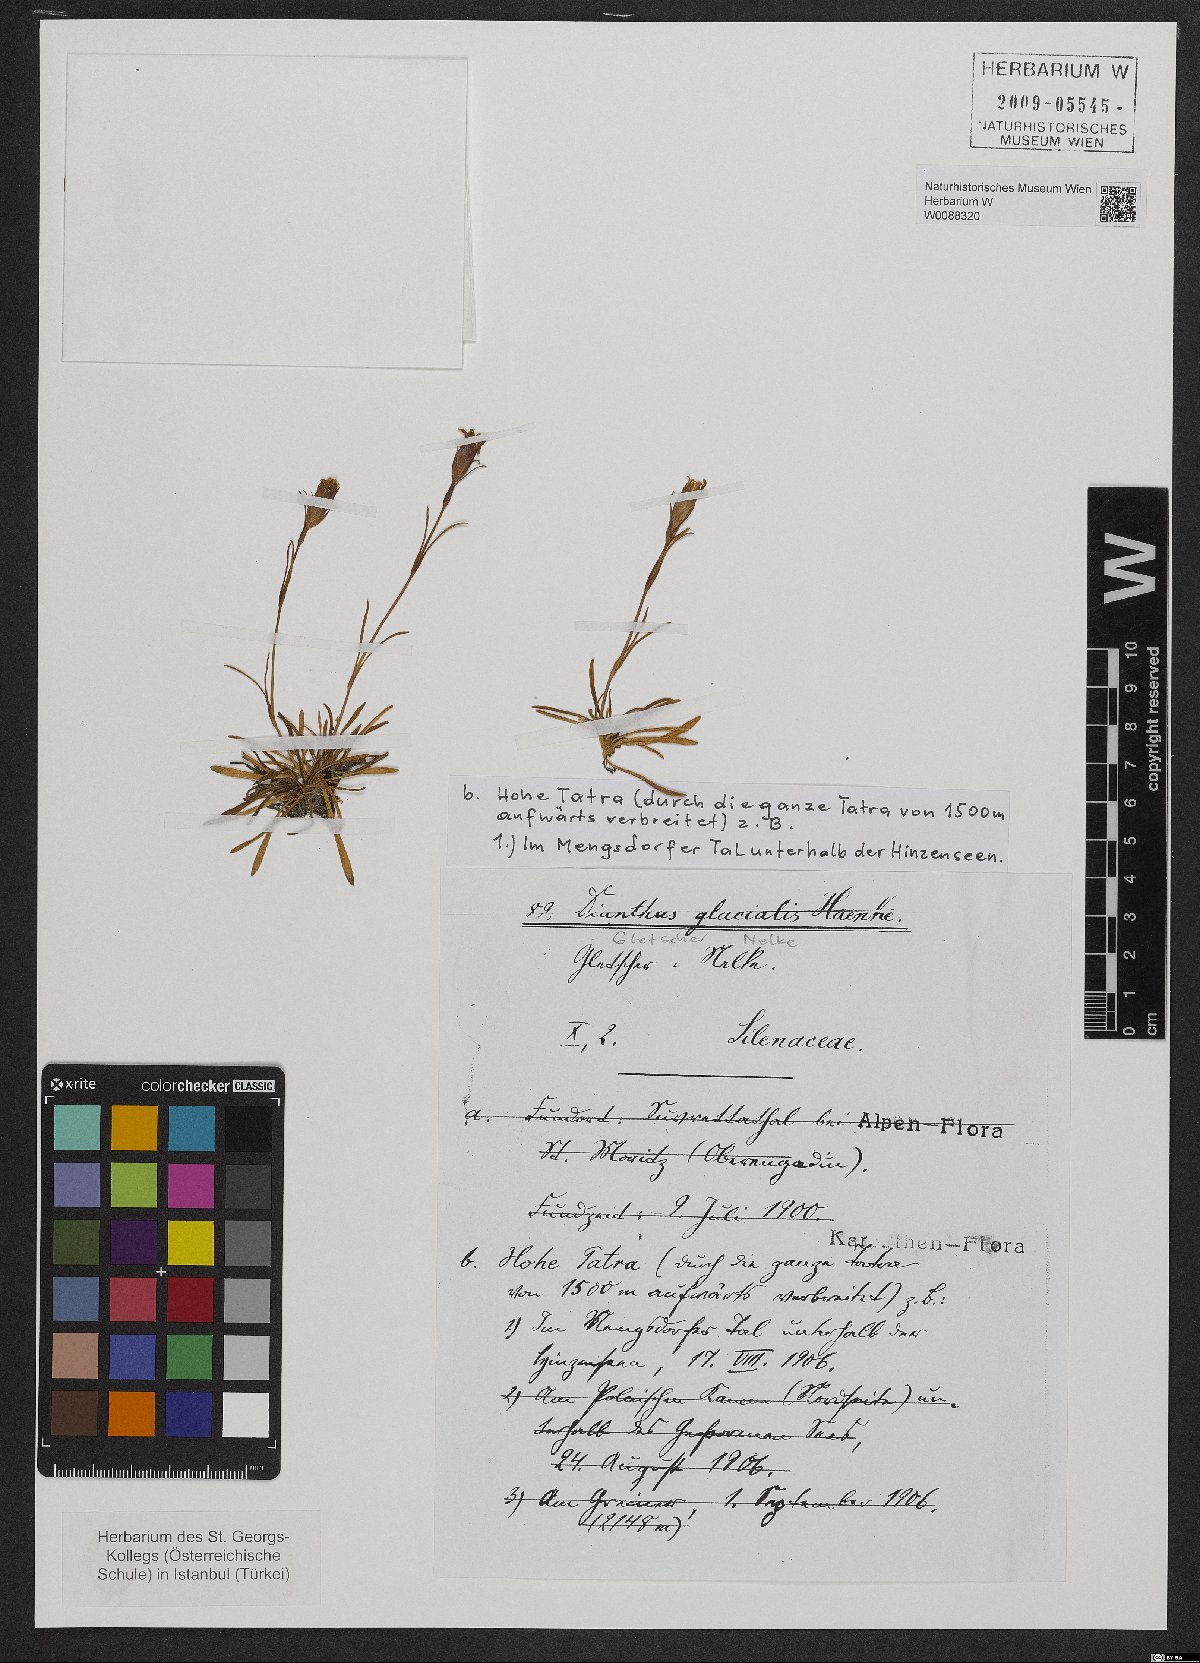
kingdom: Plantae
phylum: Tracheophyta
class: Magnoliopsida
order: Caryophyllales
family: Caryophyllaceae
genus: Dianthus
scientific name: Dianthus glacialis
